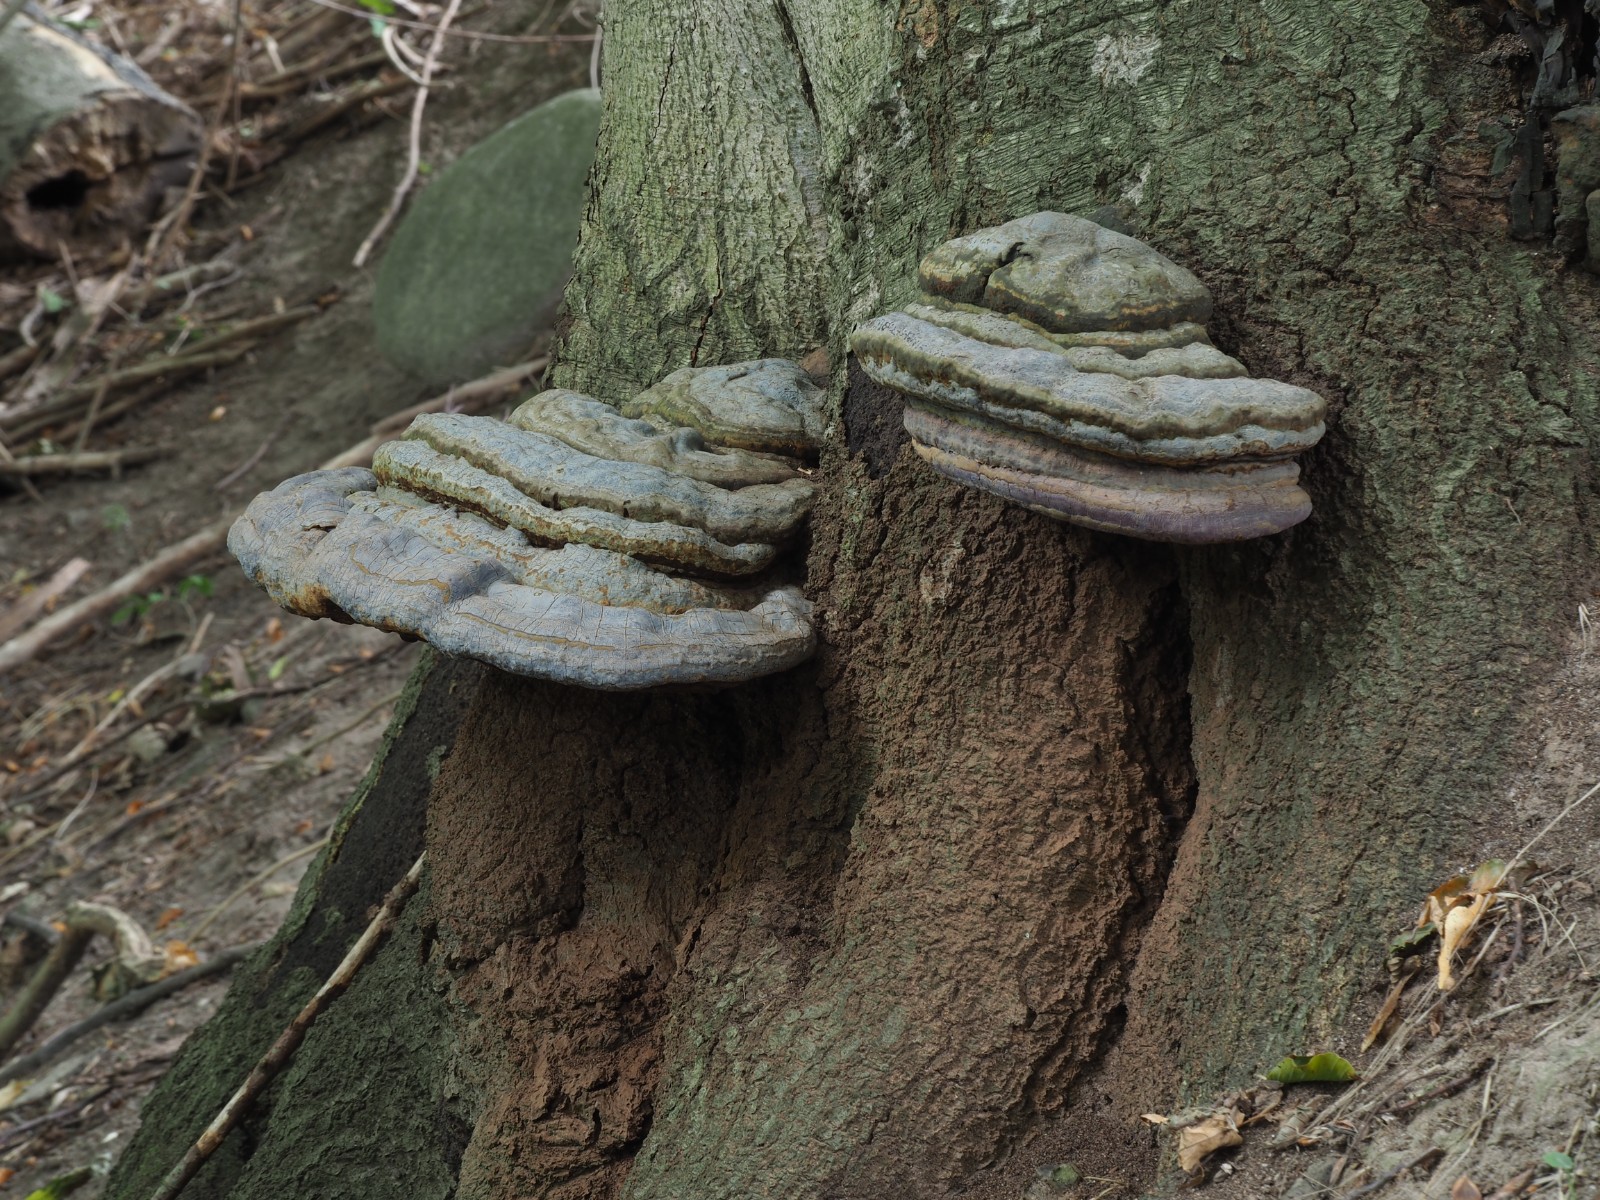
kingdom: Fungi
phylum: Basidiomycota
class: Agaricomycetes
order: Polyporales
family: Polyporaceae
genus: Ganoderma
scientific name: Ganoderma pfeifferi
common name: kobberrød lakporesvamp
